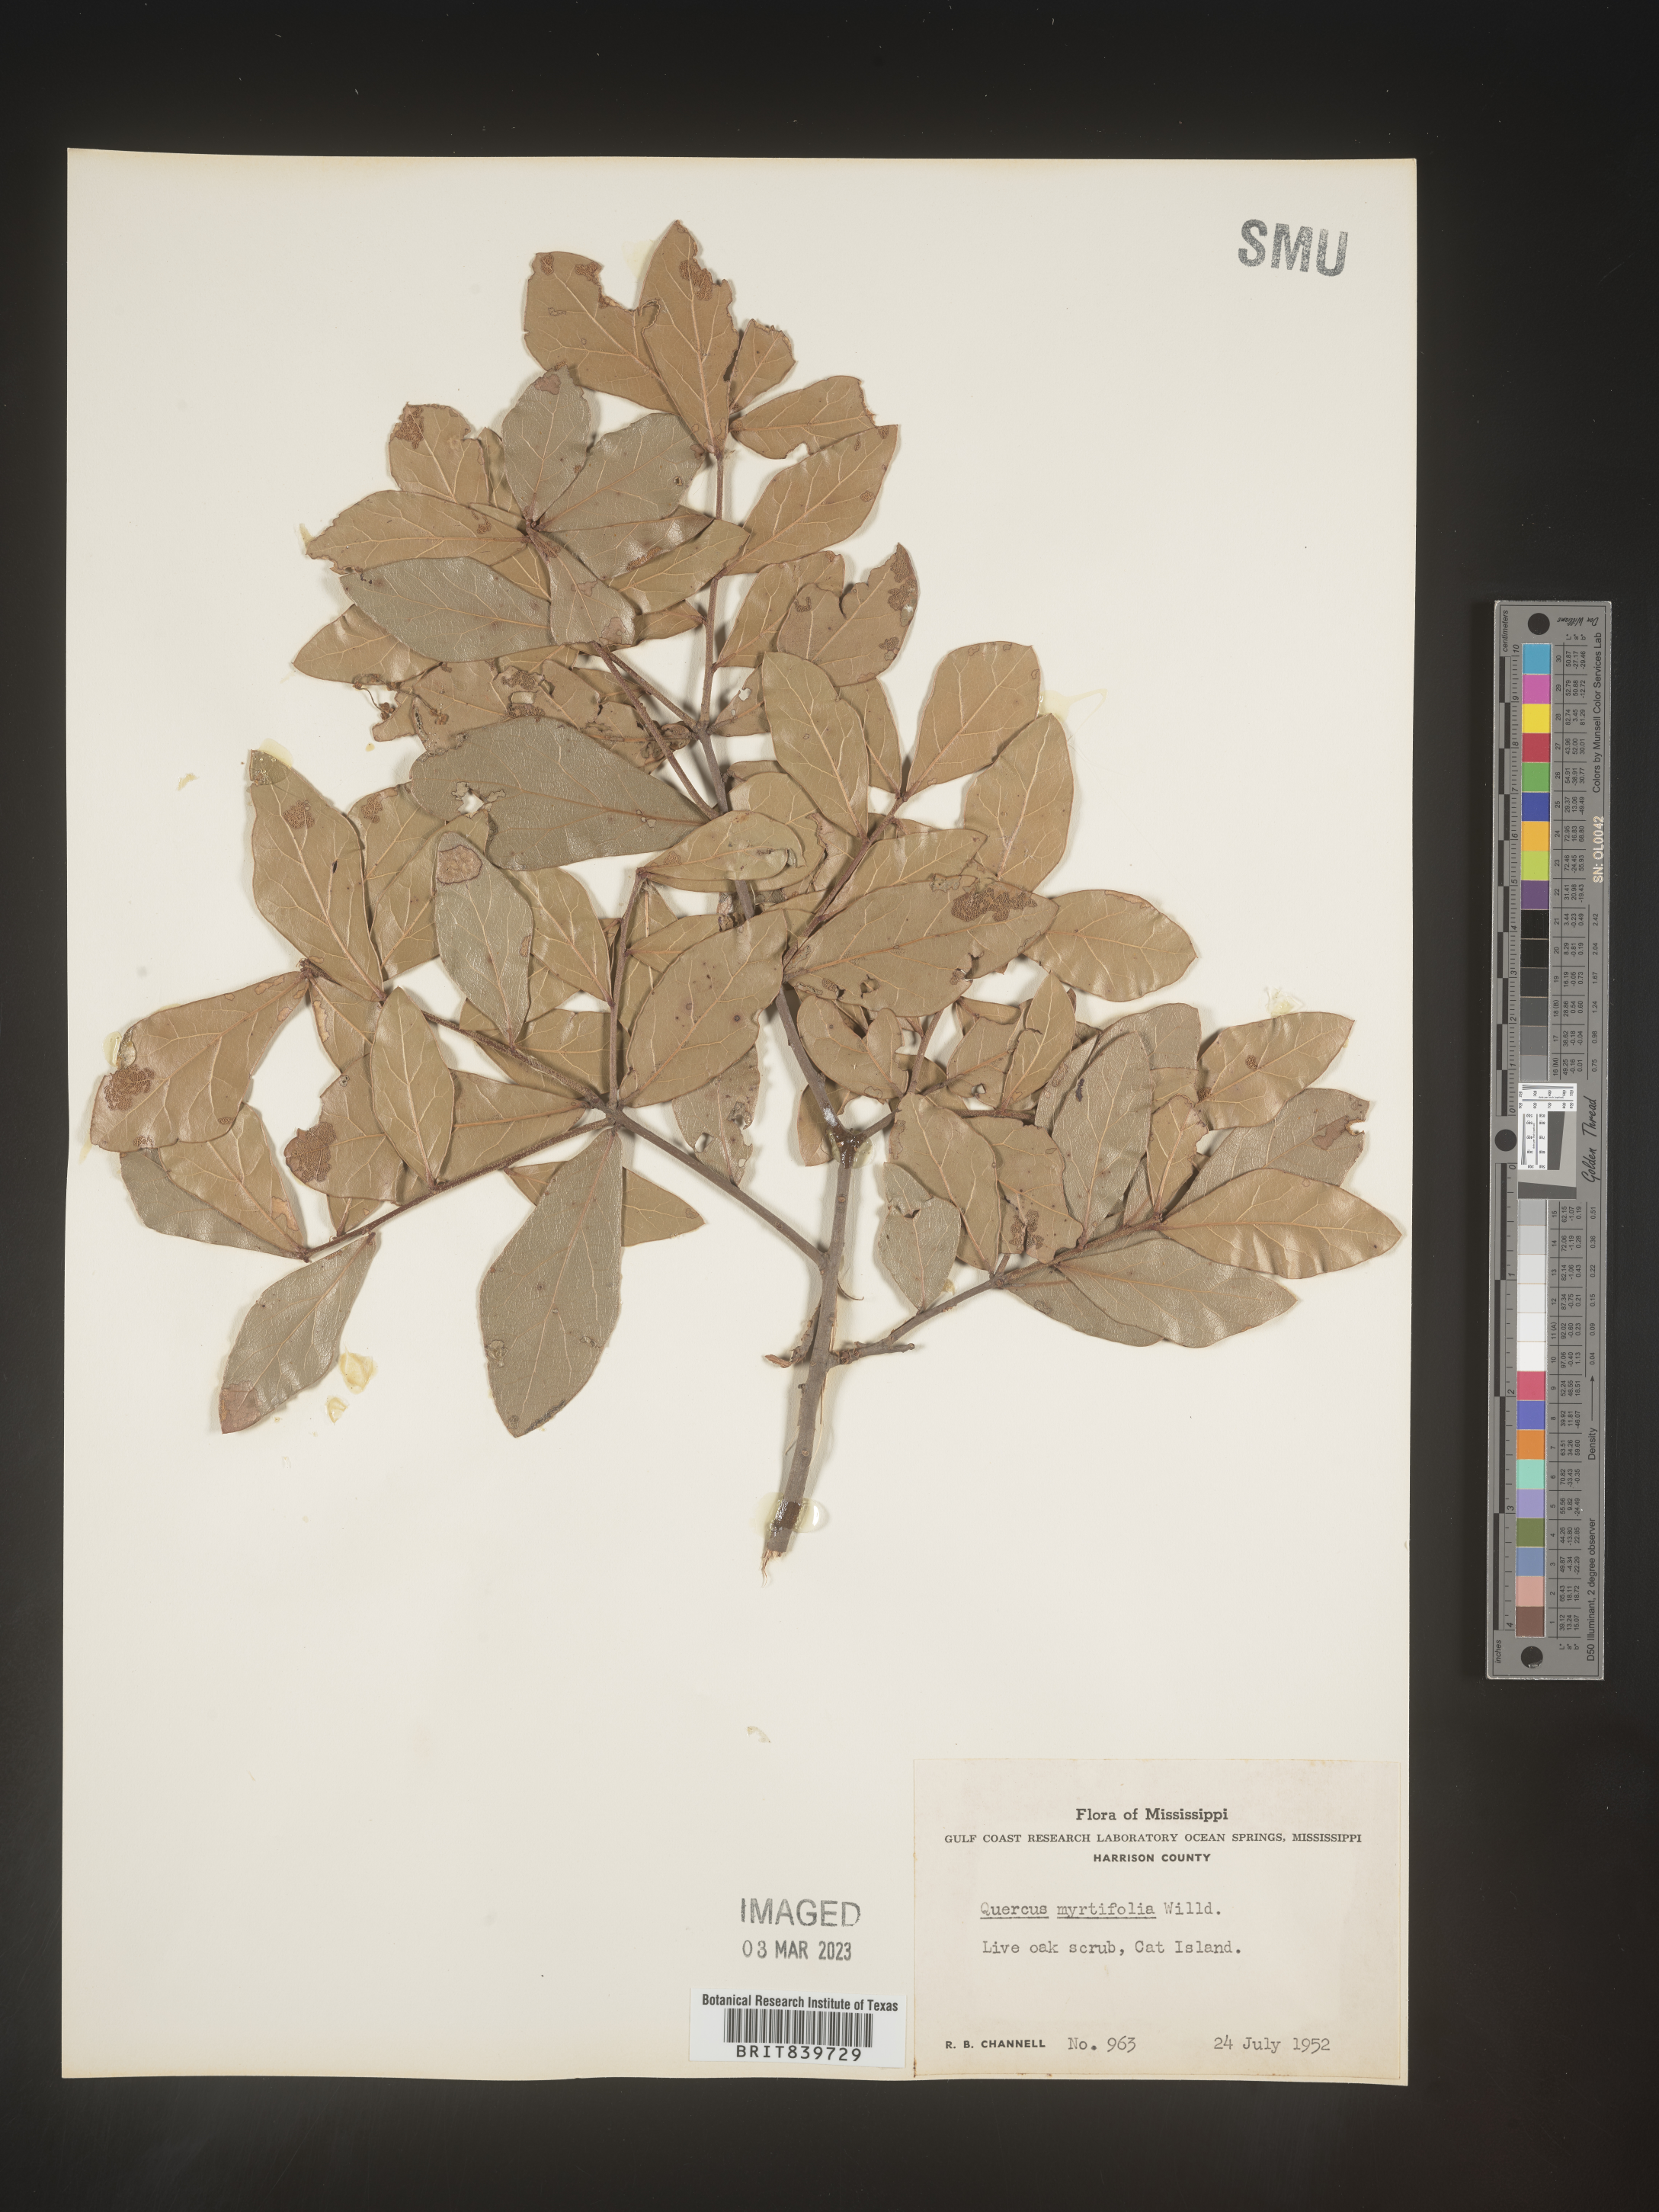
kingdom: Plantae
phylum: Tracheophyta
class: Magnoliopsida
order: Fagales
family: Fagaceae
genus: Quercus
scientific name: Quercus
